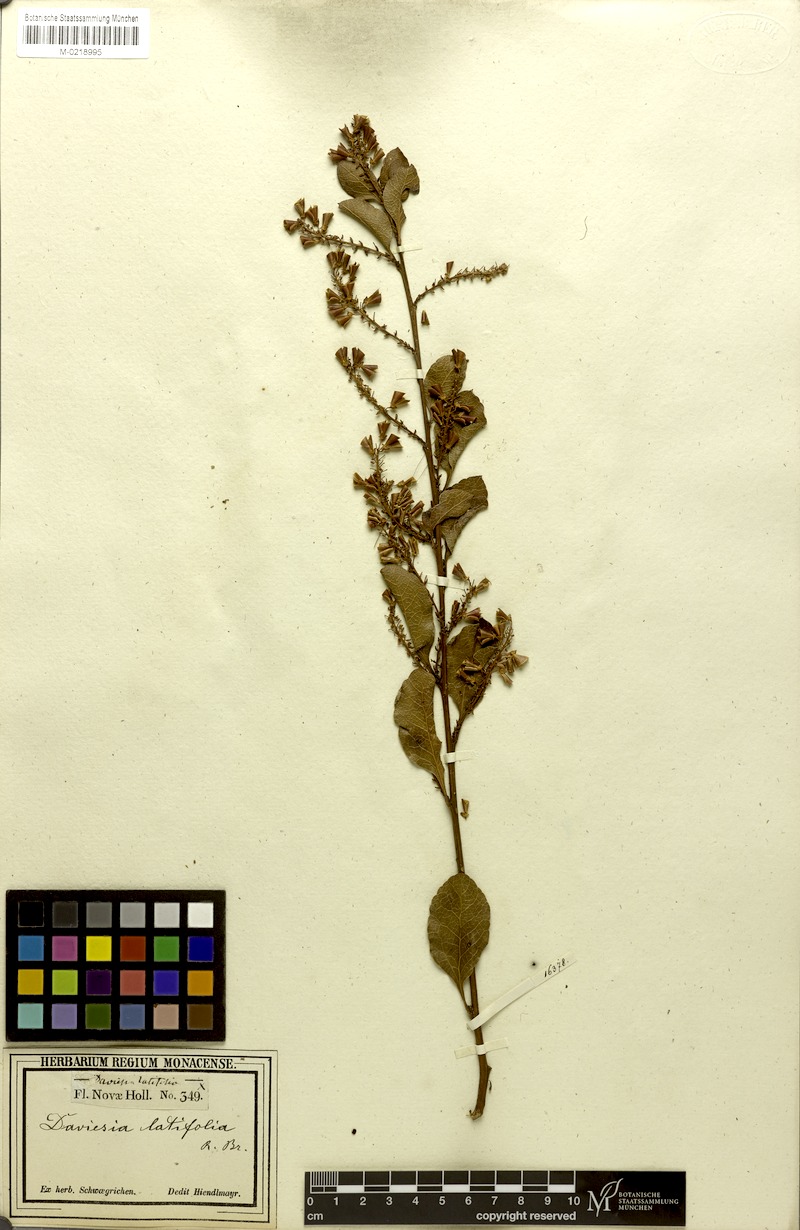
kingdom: Plantae
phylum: Tracheophyta
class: Magnoliopsida
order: Fabales
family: Fabaceae
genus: Daviesia
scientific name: Daviesia latifolia
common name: Hop bitter-pea
